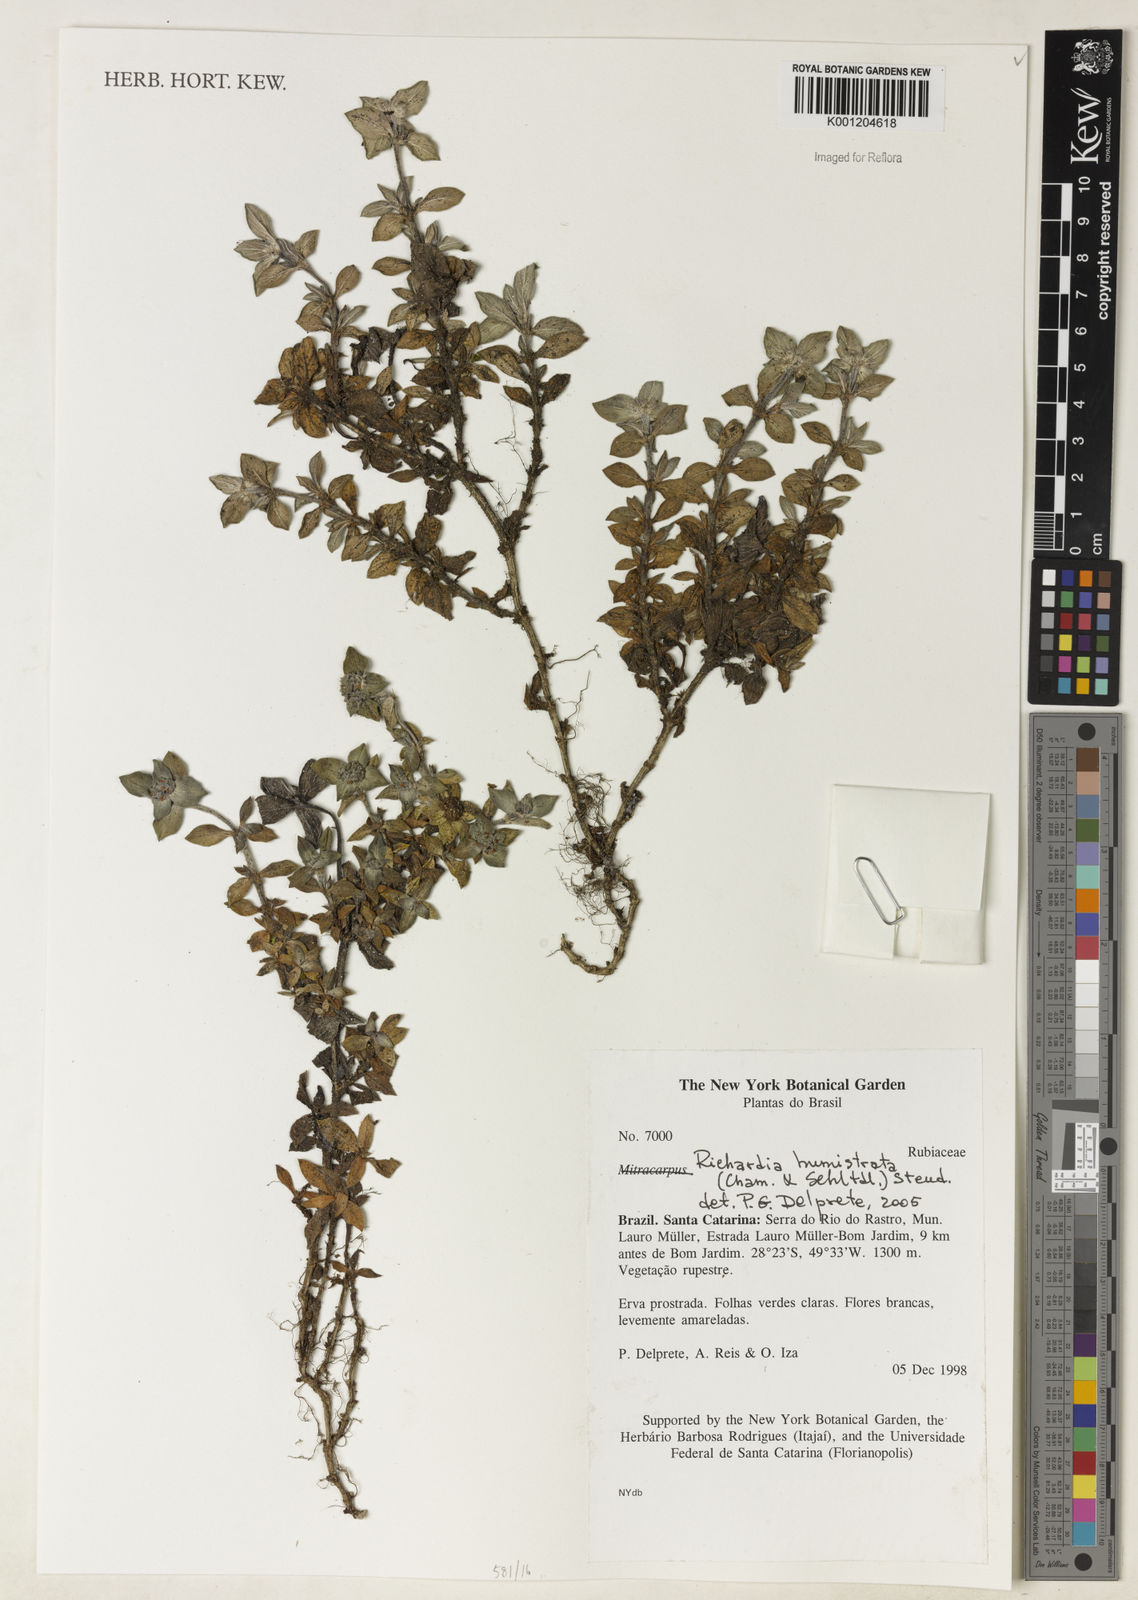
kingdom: Plantae
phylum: Tracheophyta
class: Magnoliopsida
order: Gentianales
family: Rubiaceae
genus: Richardia
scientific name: Richardia humistrata
